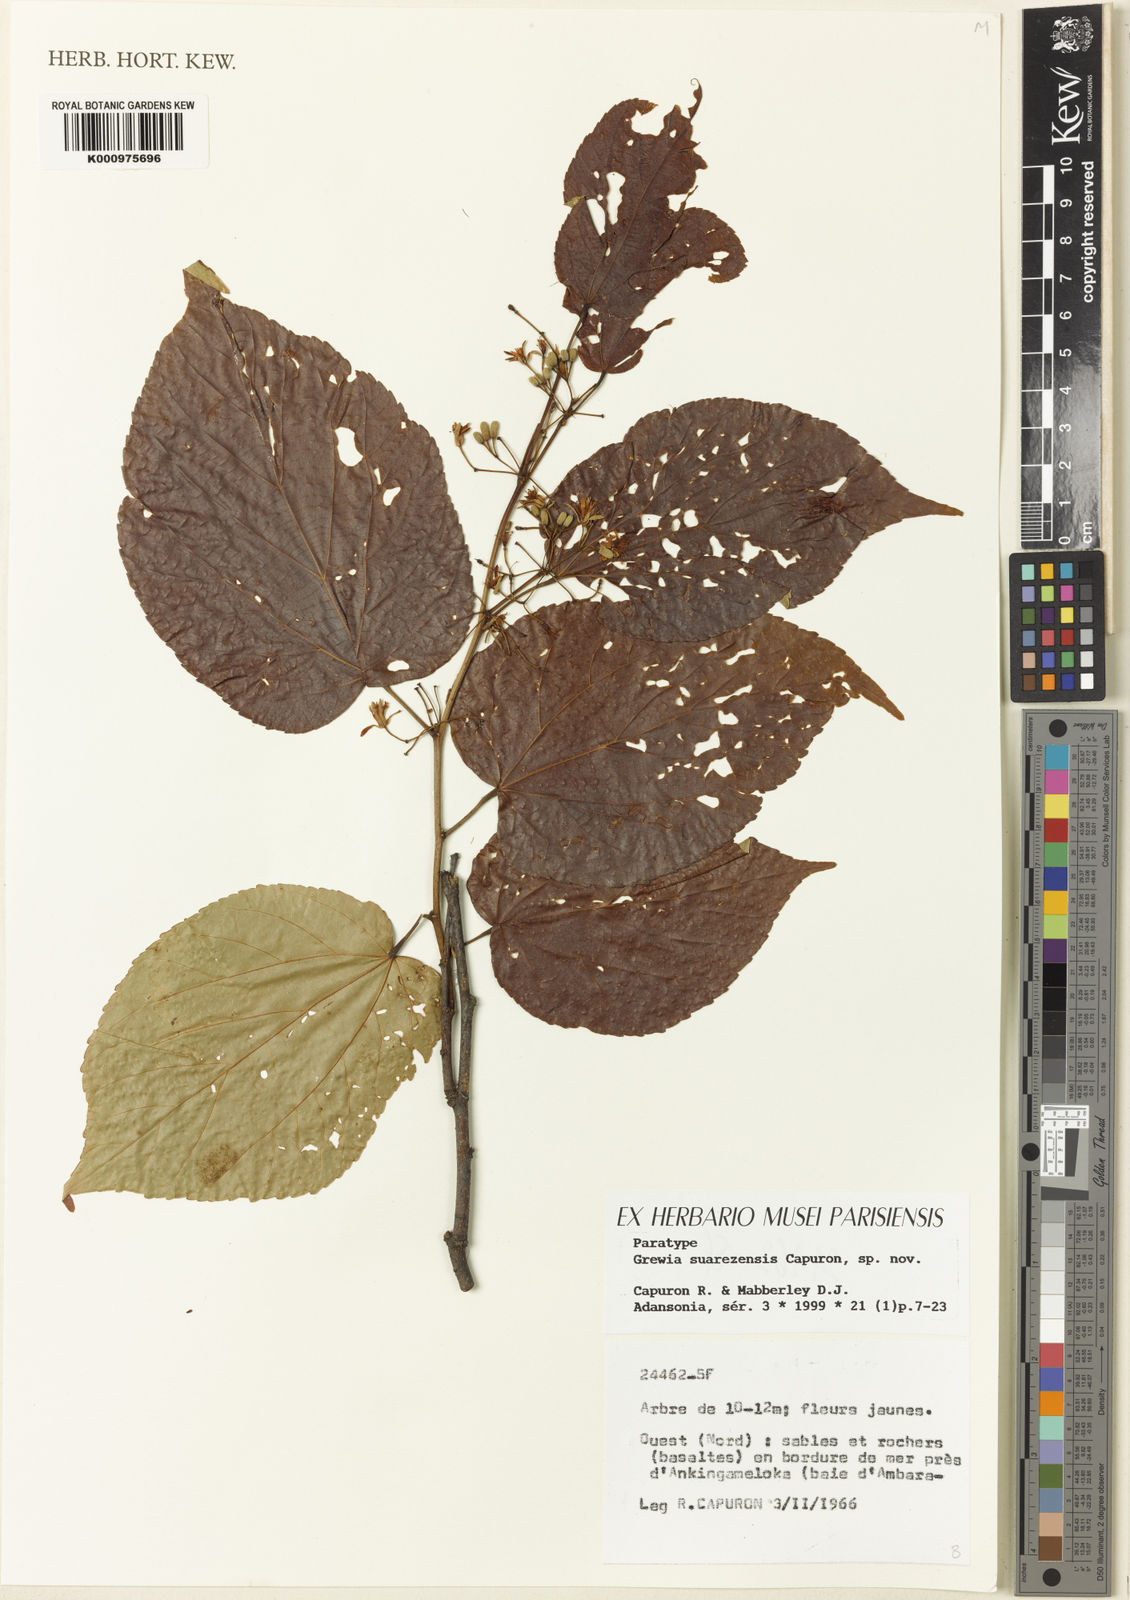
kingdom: Plantae
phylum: Tracheophyta
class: Magnoliopsida
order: Malvales
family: Malvaceae
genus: Grewia
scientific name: Grewia suarezensis
